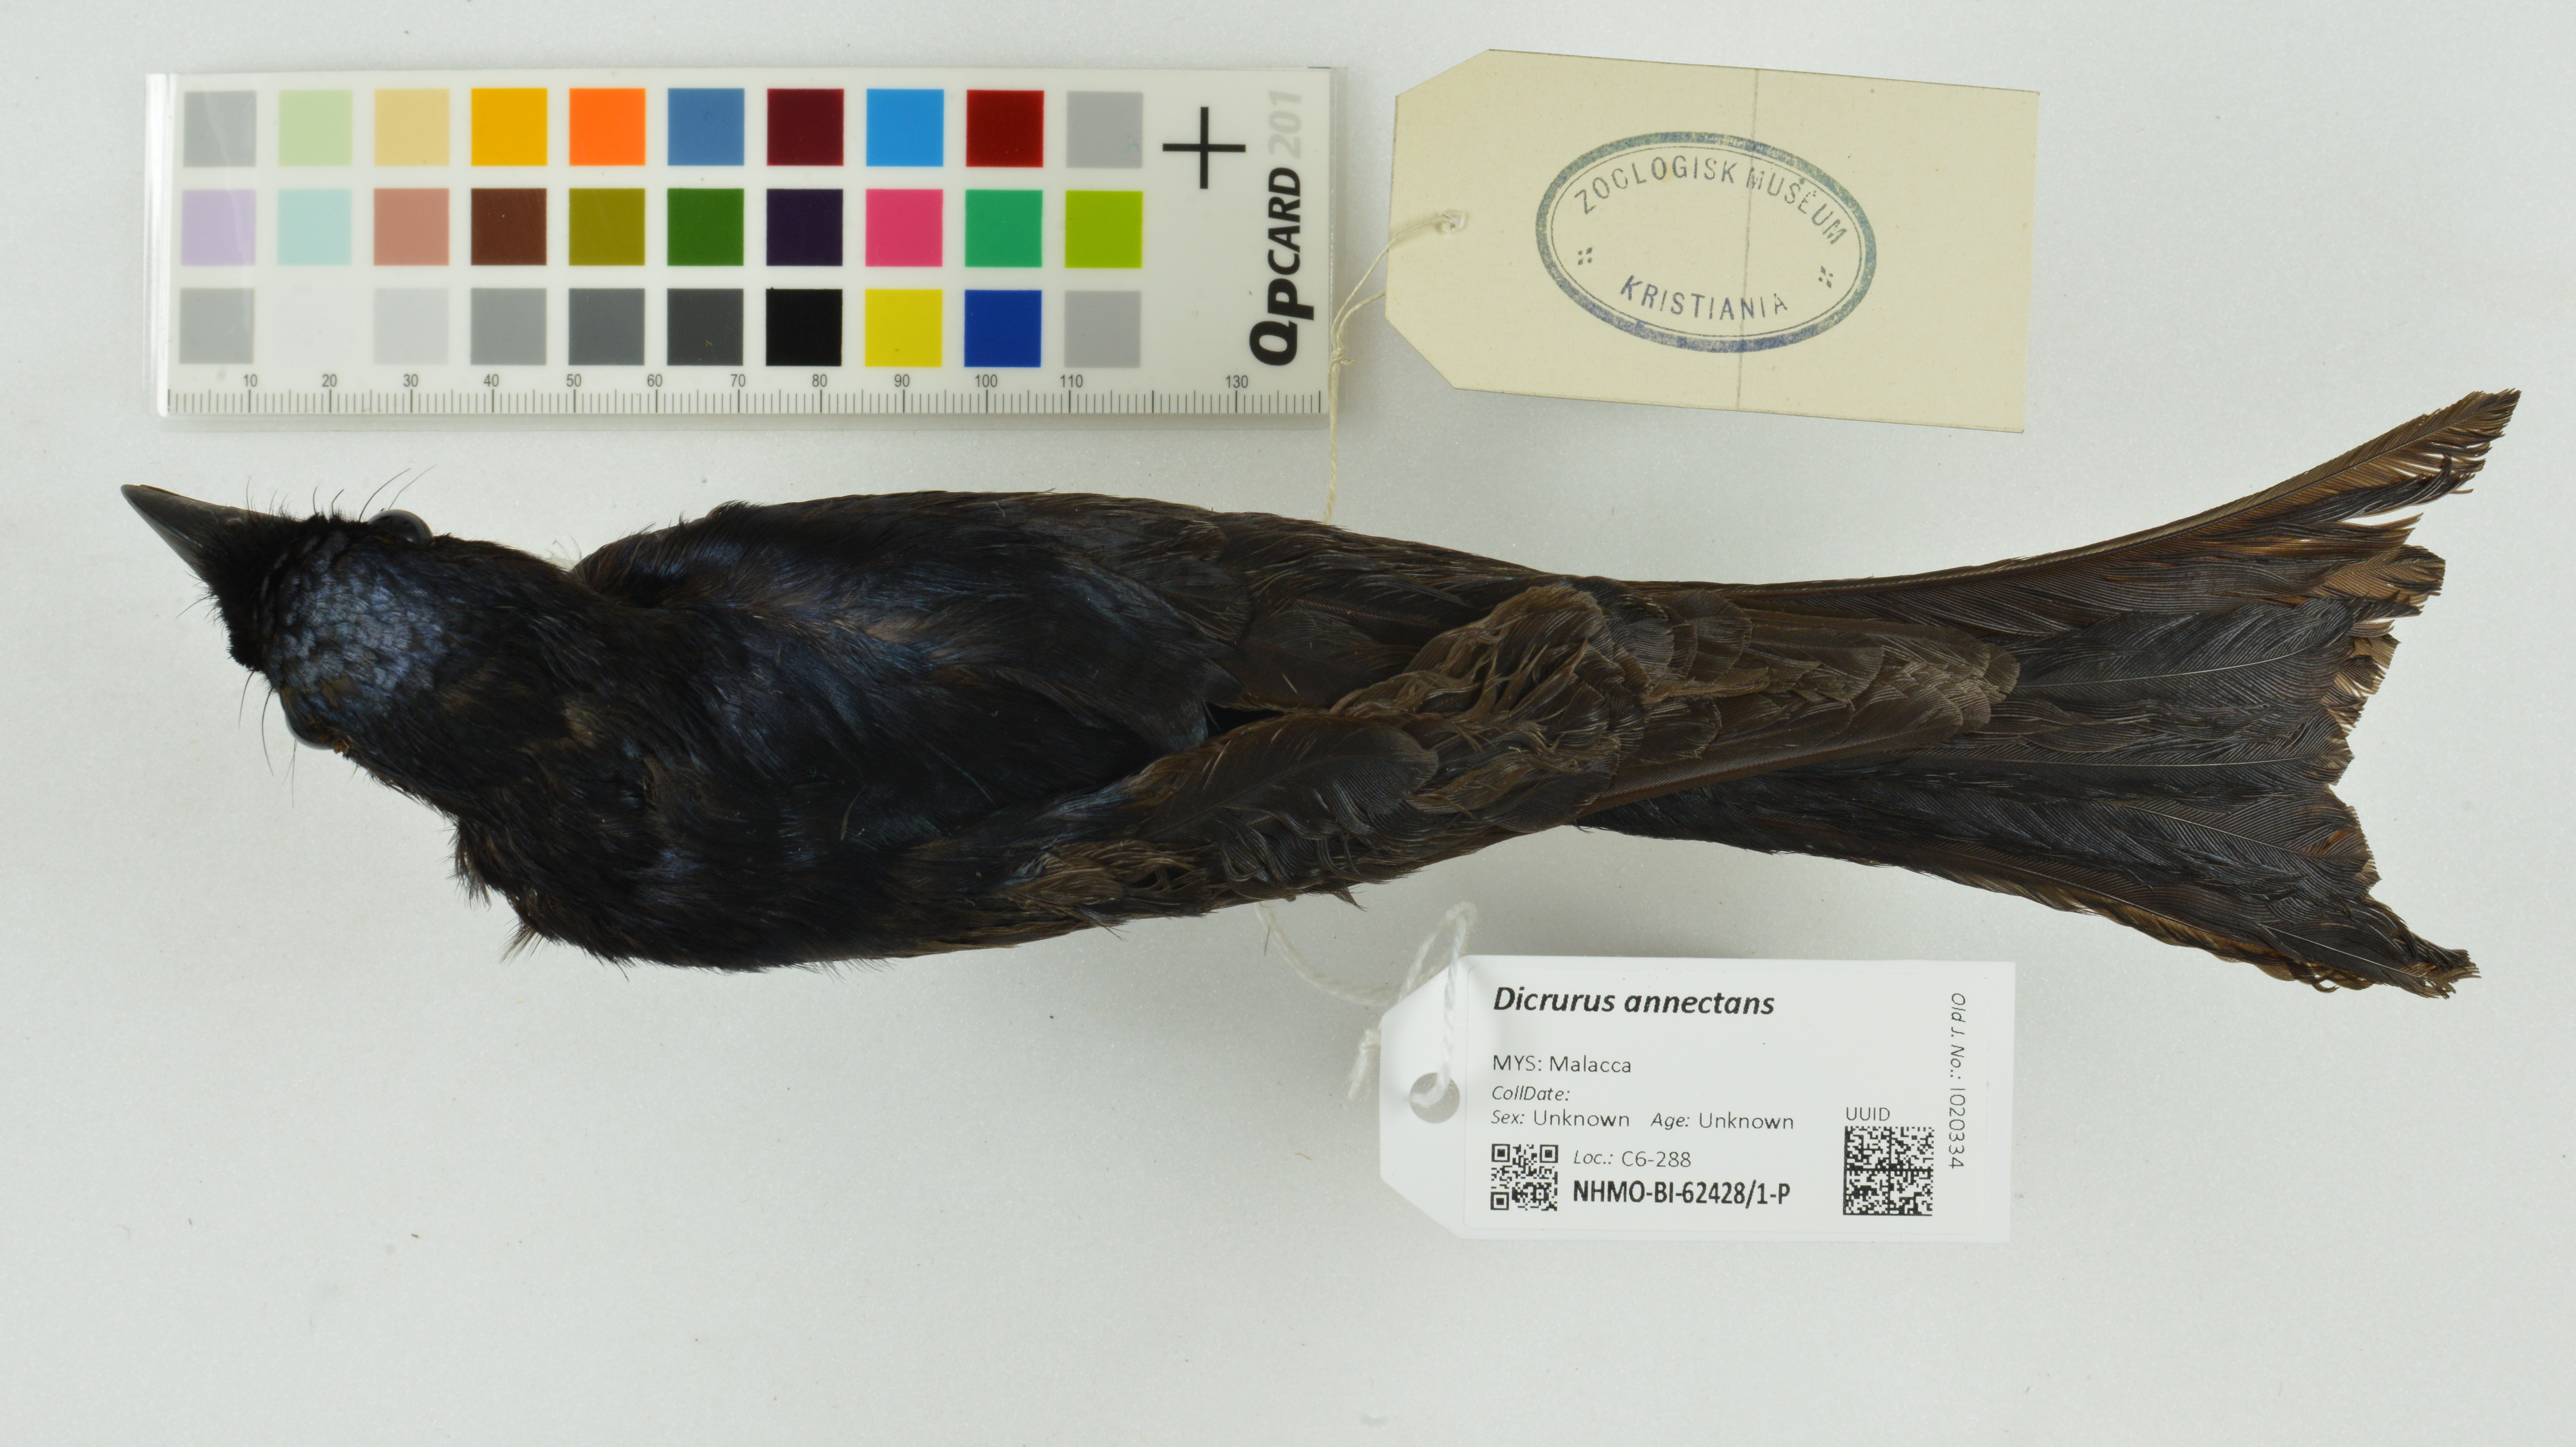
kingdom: Animalia
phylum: Chordata
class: Aves
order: Passeriformes
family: Dicruridae
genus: Dicrurus
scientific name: Dicrurus annectens
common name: Crow-billed drongo
